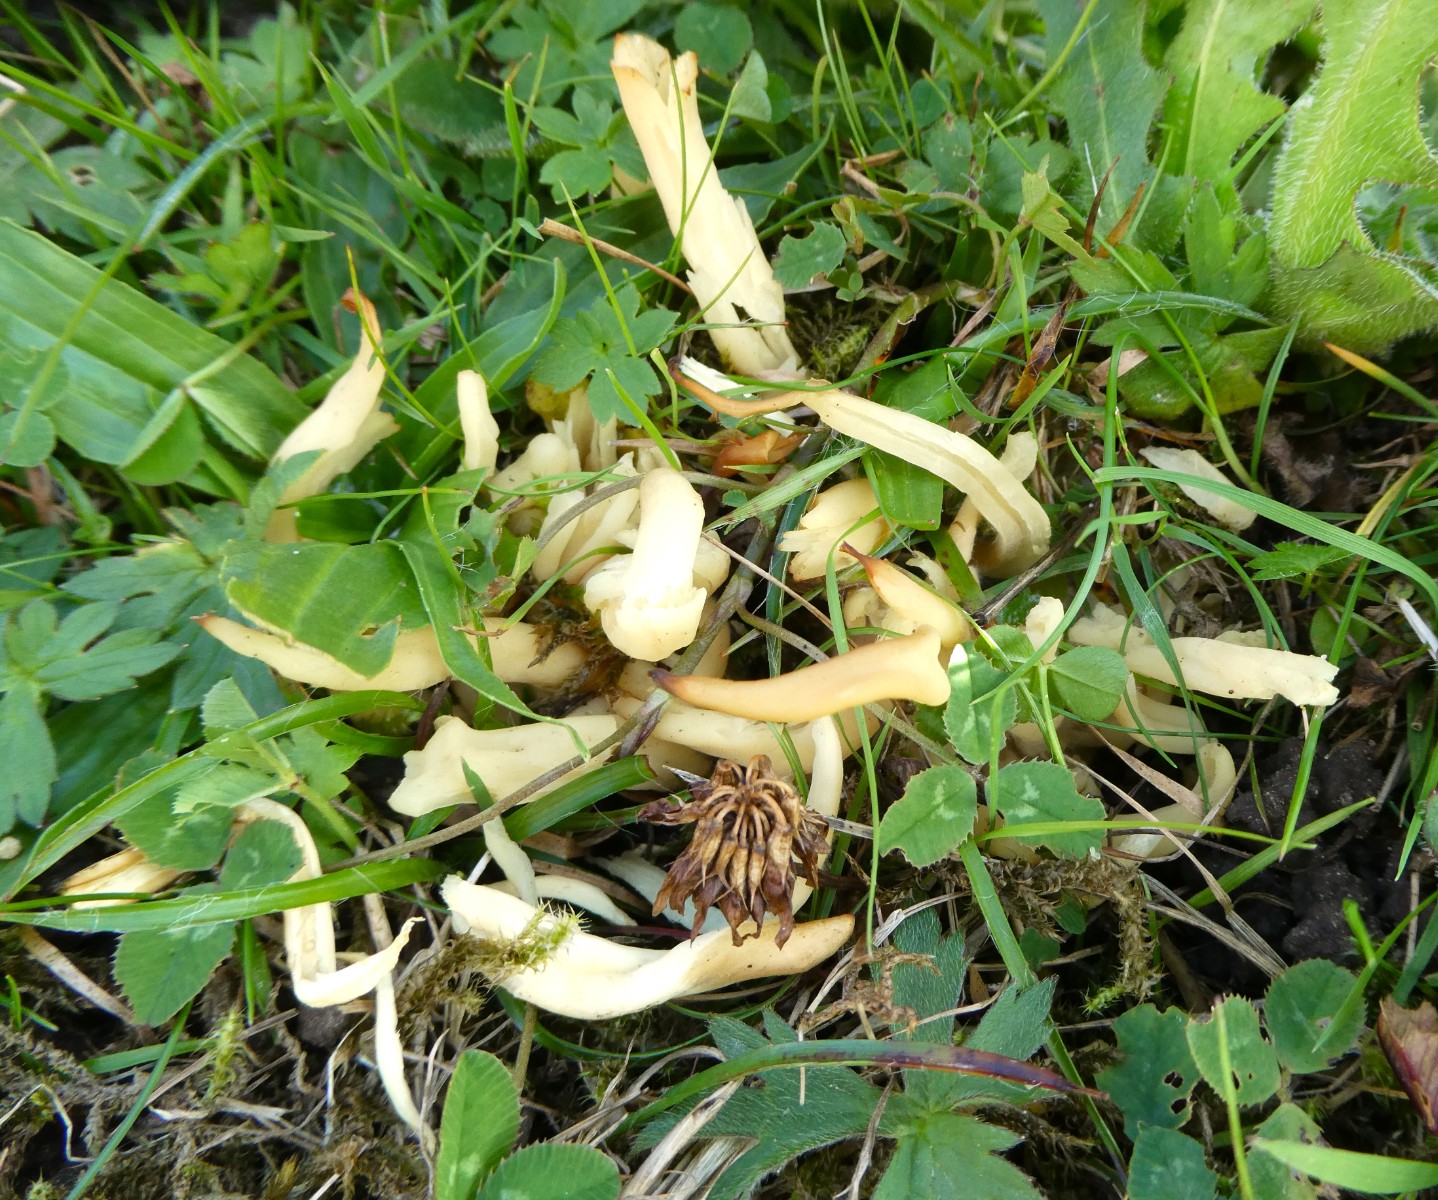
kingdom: Fungi
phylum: Basidiomycota
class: Agaricomycetes
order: Agaricales
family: Clavariaceae
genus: Clavaria
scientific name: Clavaria amoenoides
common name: bleggul køllesvamp
